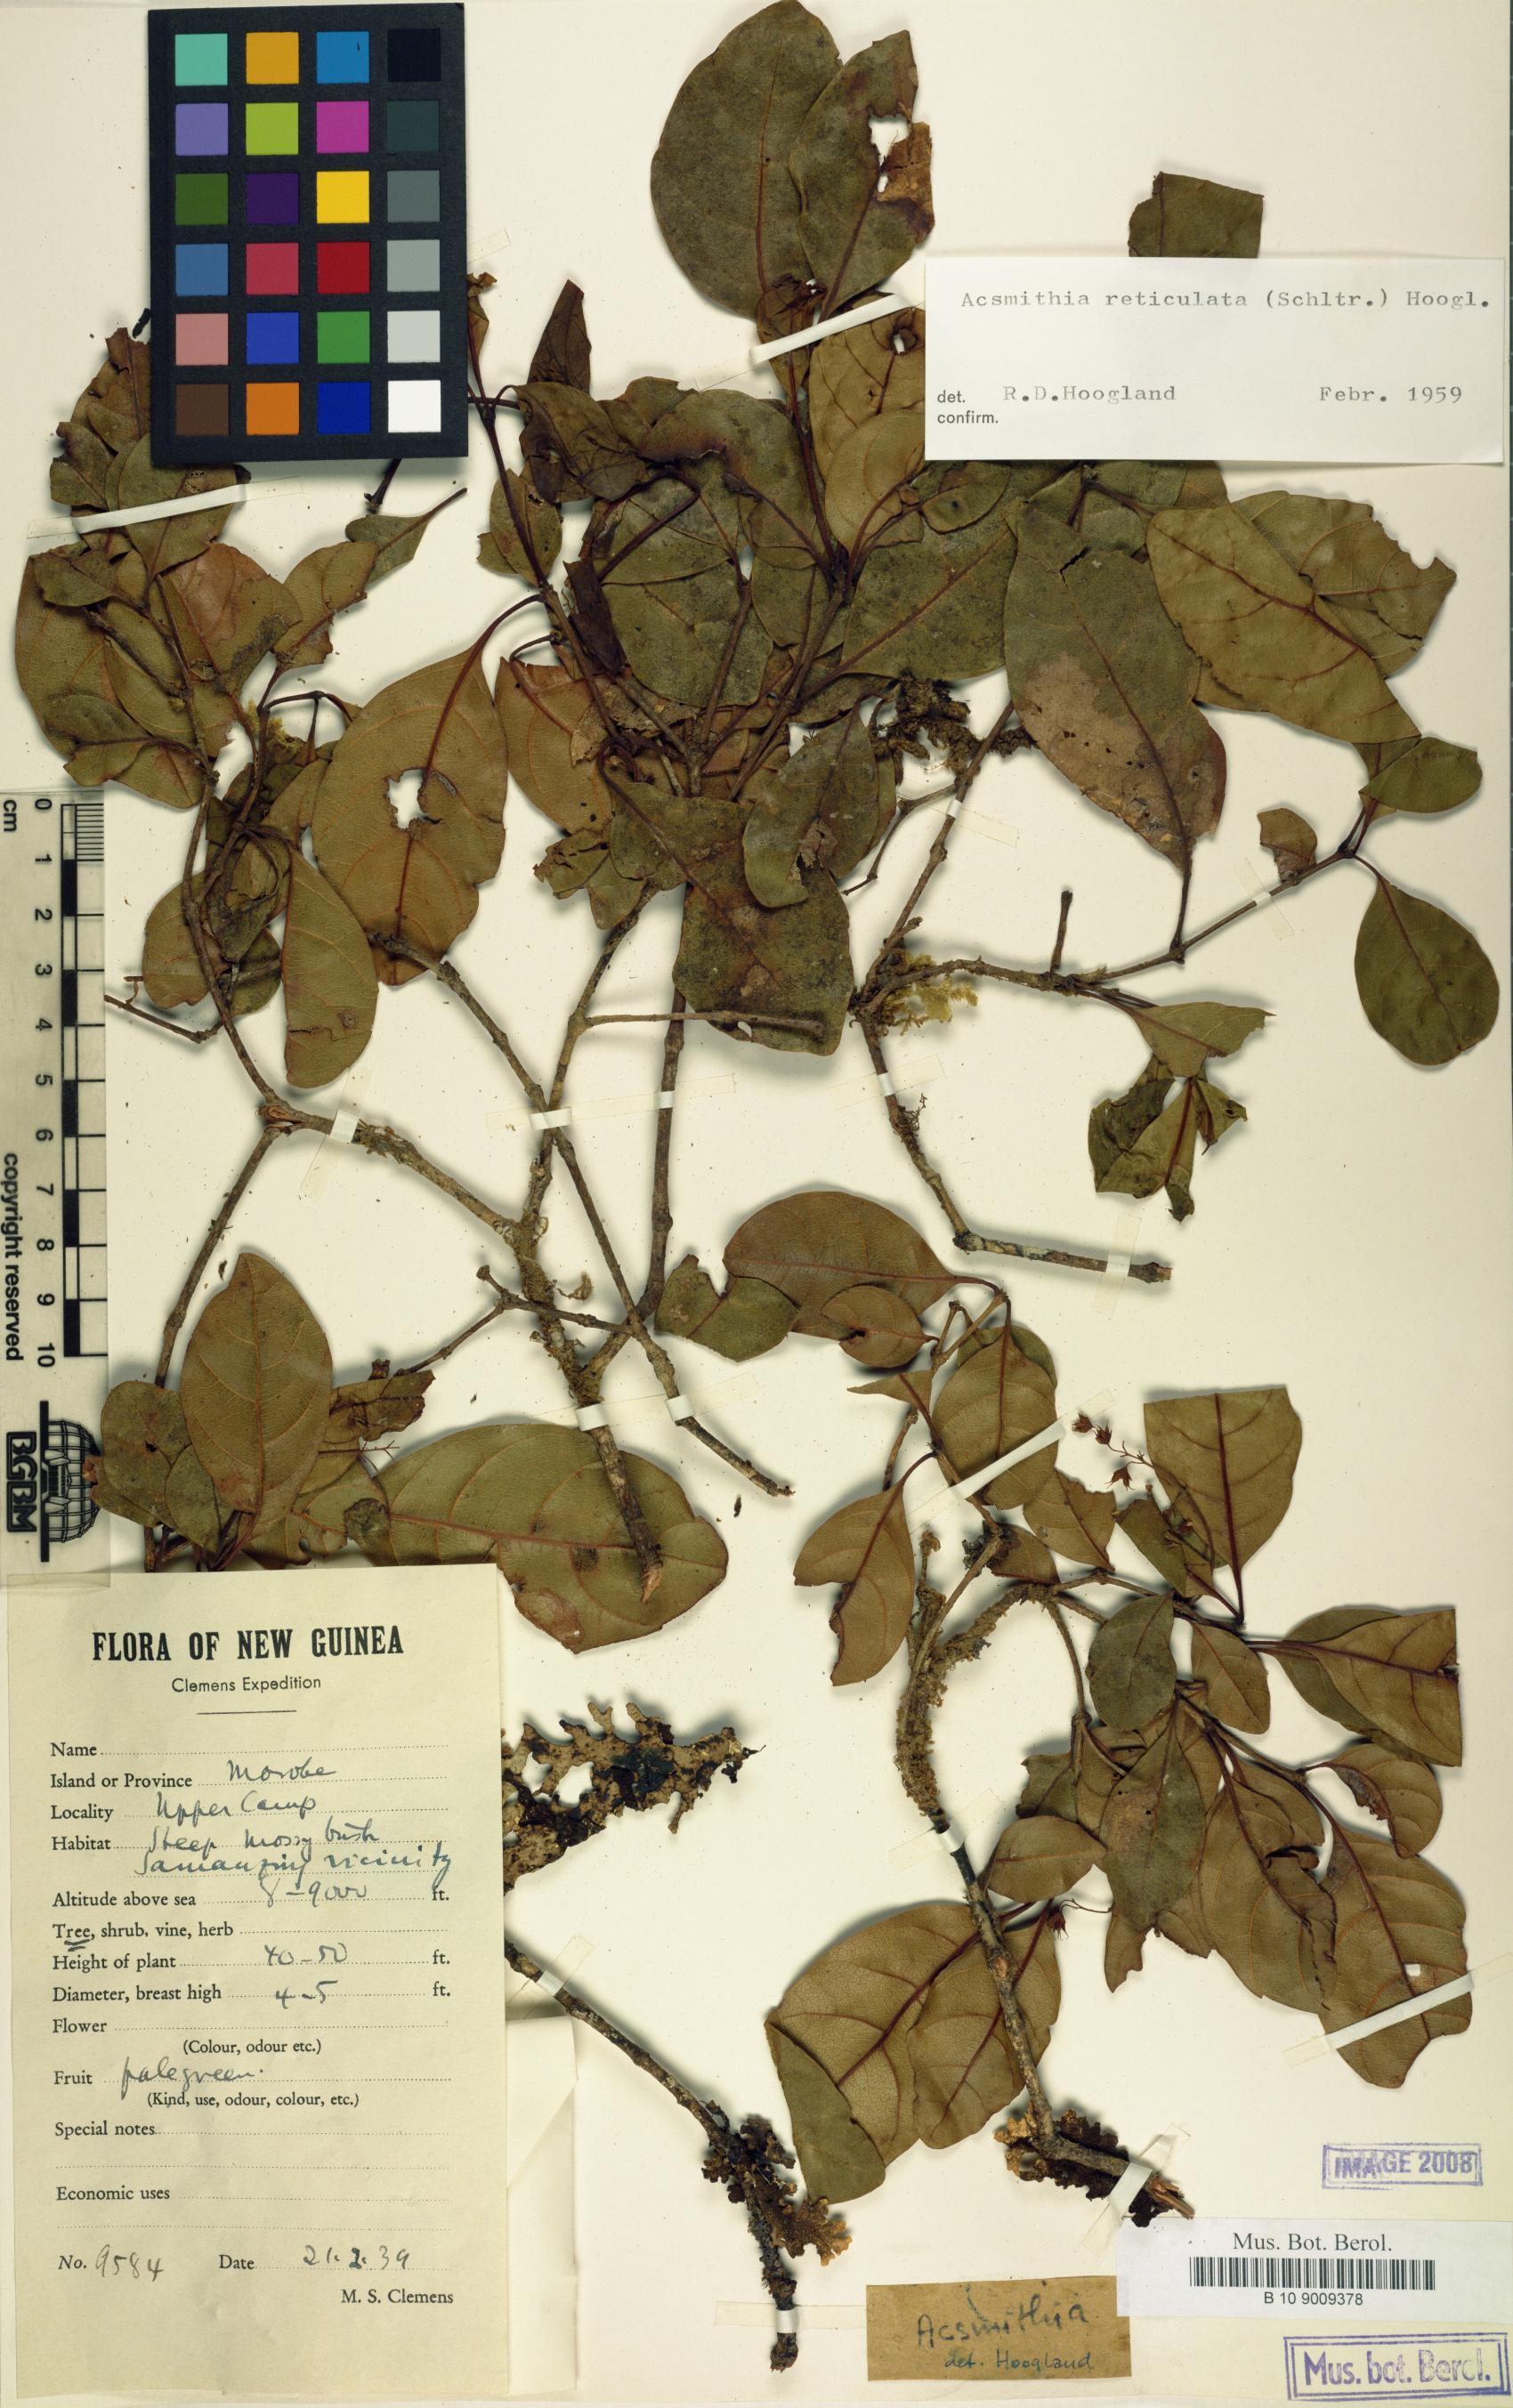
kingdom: Plantae
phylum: Tracheophyta
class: Magnoliopsida
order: Oxalidales
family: Cunoniaceae
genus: Spiraeanthemum
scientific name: Spiraeanthemum reticulatum
